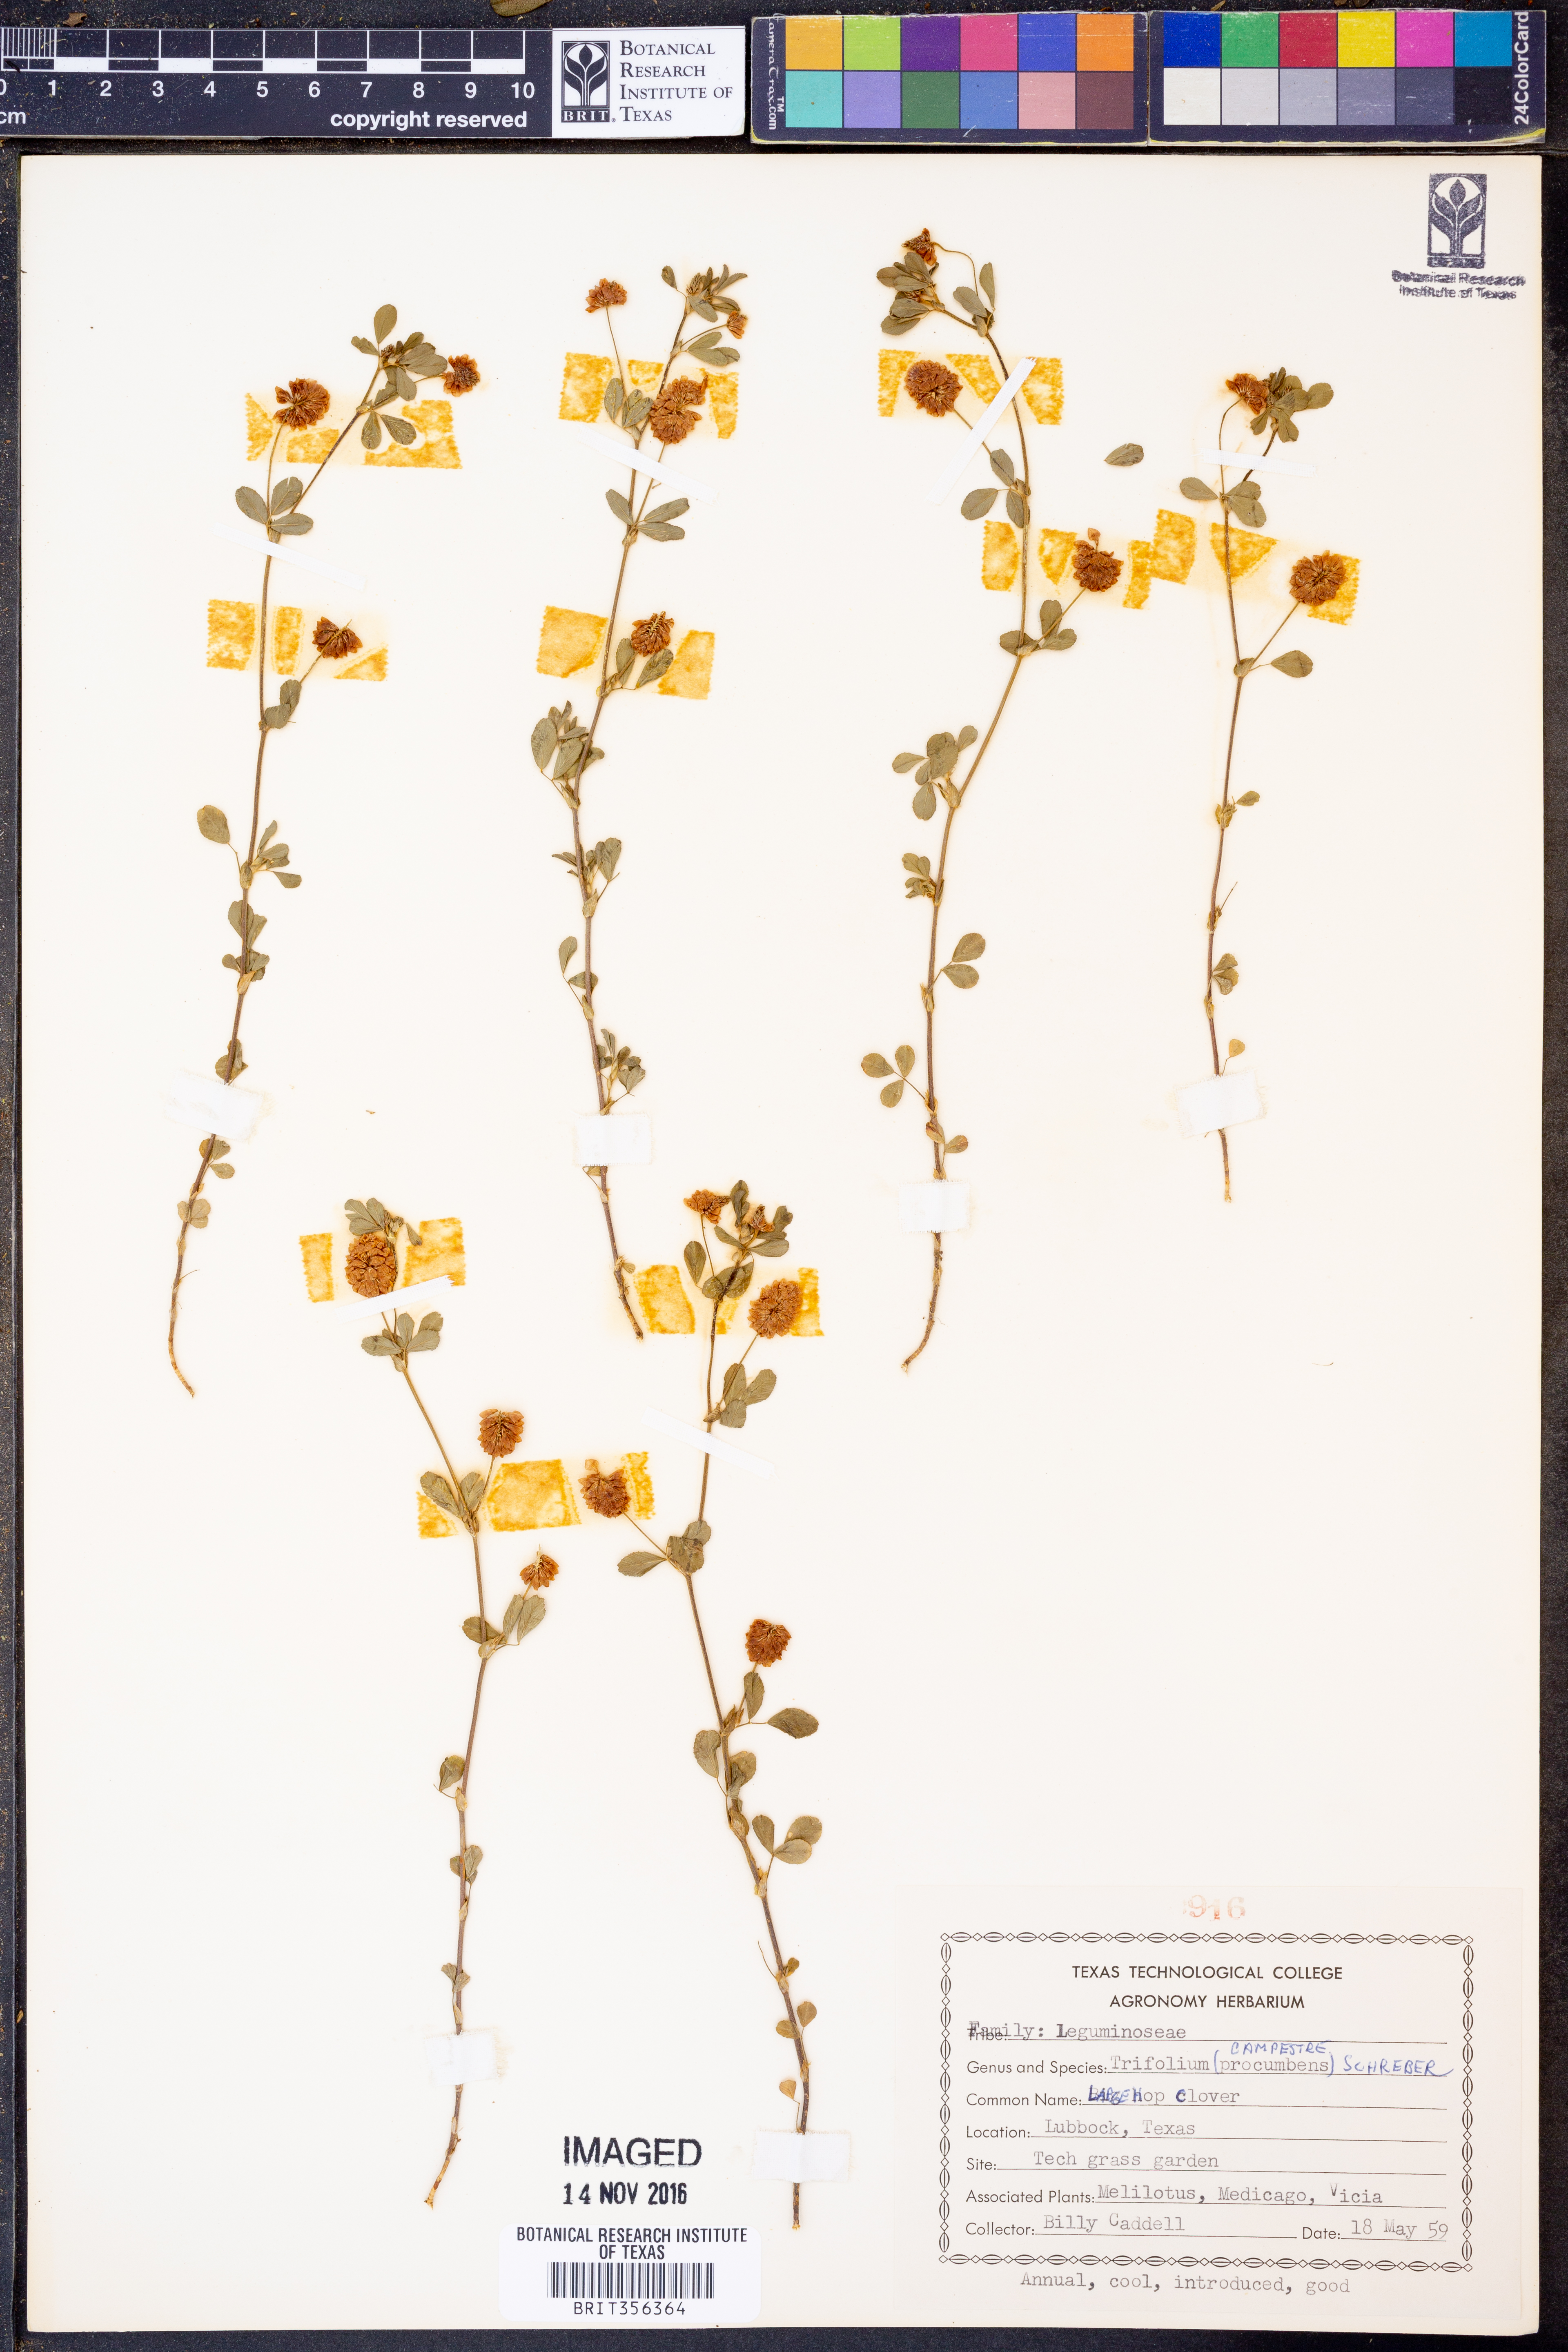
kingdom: Plantae
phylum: Tracheophyta
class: Magnoliopsida
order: Fabales
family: Fabaceae
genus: Trifolium
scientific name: Trifolium campestre
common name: Field clover
